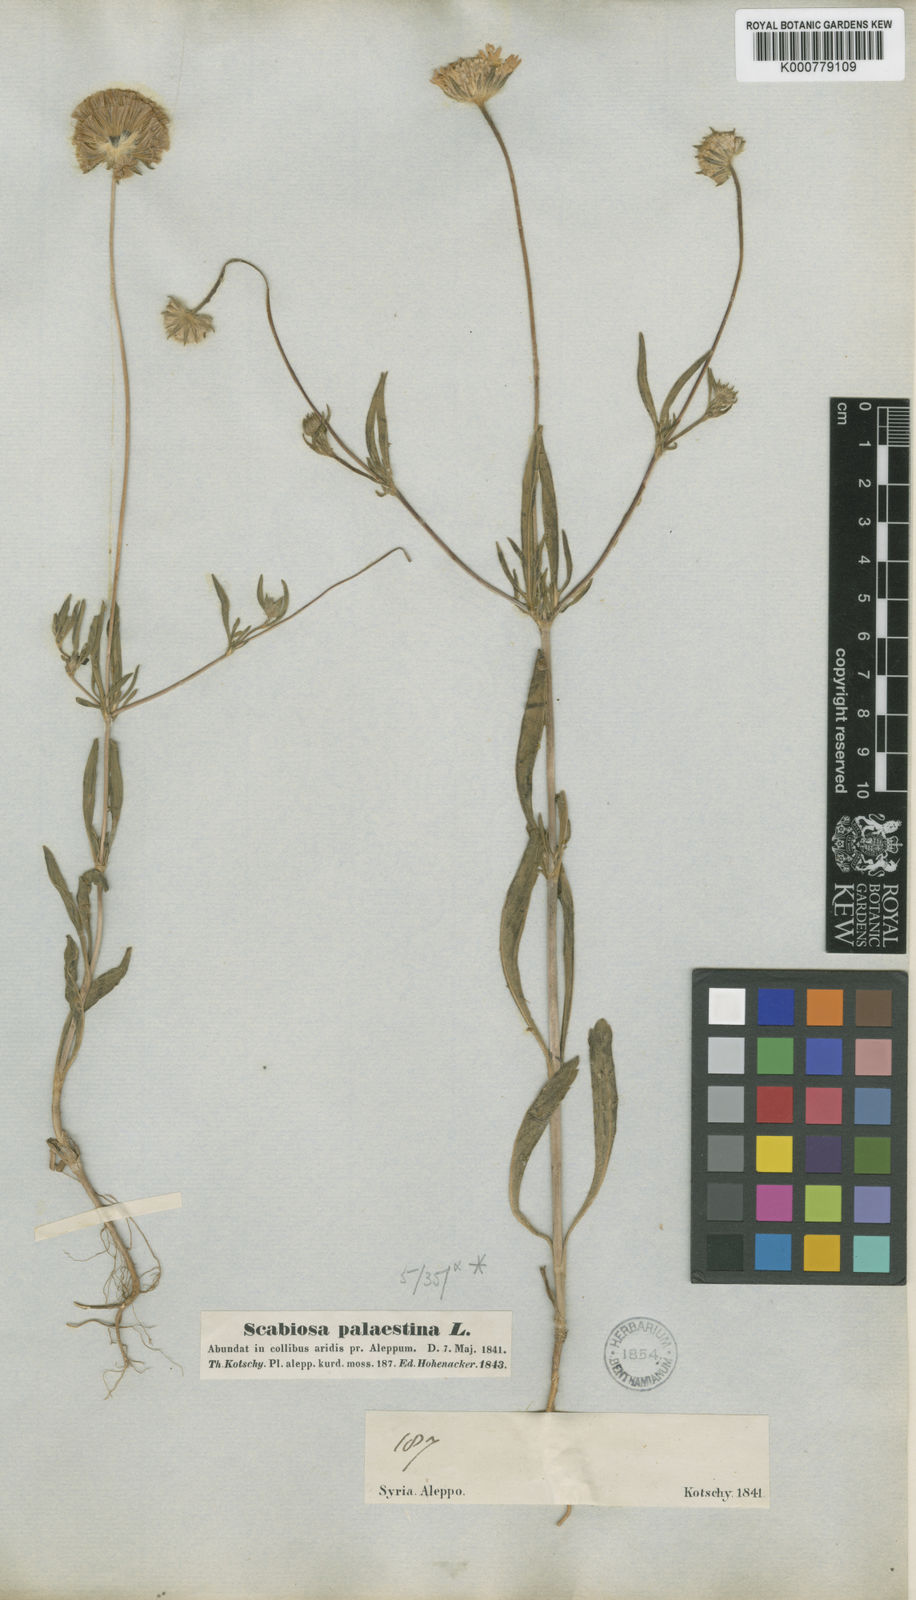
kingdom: Plantae
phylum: Tracheophyta
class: Magnoliopsida
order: Dipsacales
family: Caprifoliaceae
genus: Lomelosia
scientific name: Lomelosia palaestina
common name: Balkan pincushions
